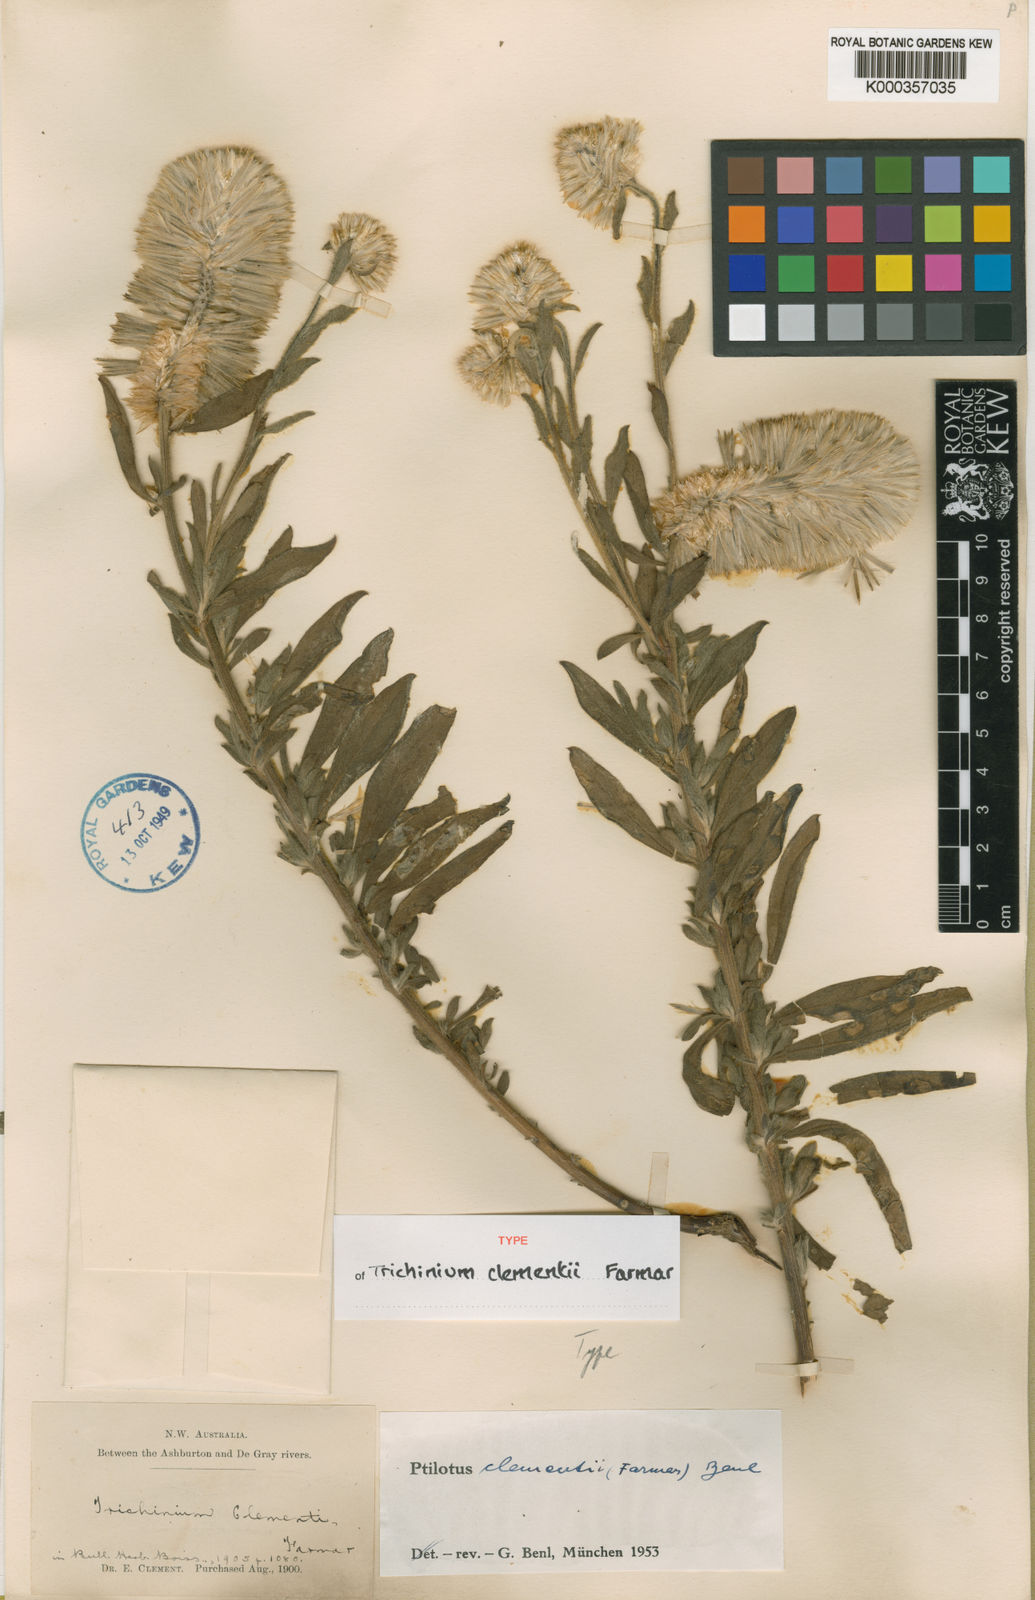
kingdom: Plantae
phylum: Tracheophyta
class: Magnoliopsida
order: Caryophyllales
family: Amaranthaceae
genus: Ptilotus
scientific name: Ptilotus clementii
